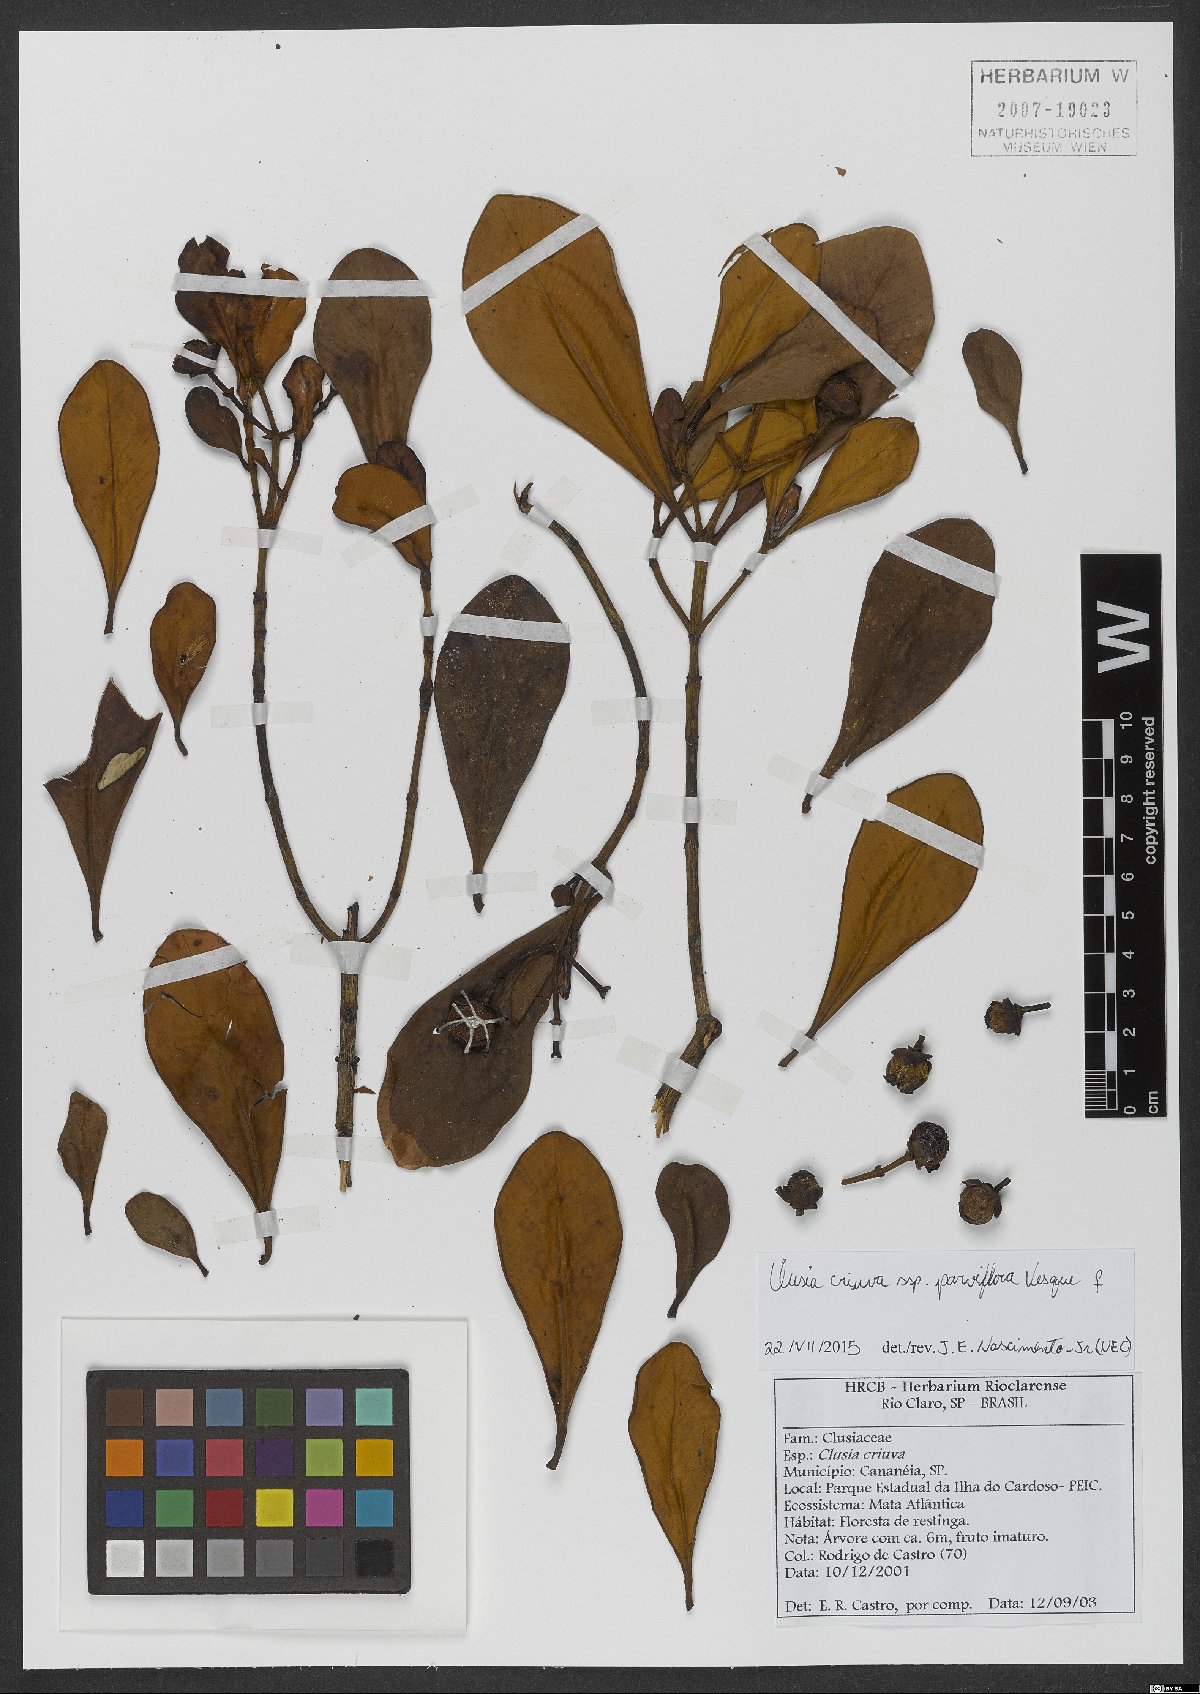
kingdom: Plantae
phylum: Tracheophyta
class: Magnoliopsida
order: Malpighiales
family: Clusiaceae
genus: Clusia
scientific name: Clusia criuva
